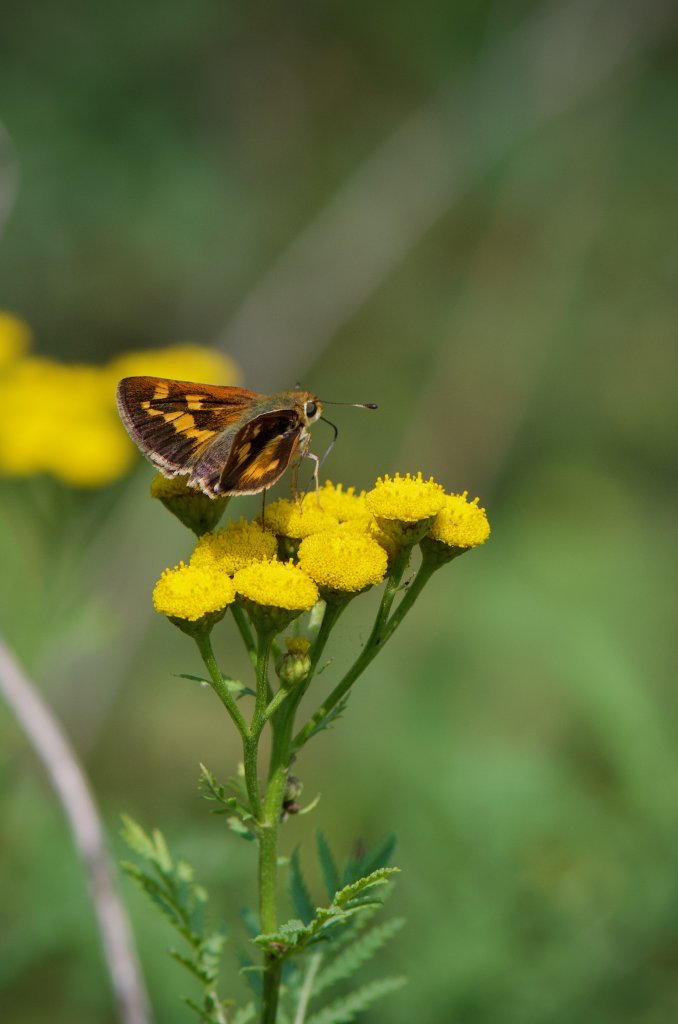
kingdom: Animalia
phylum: Arthropoda
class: Insecta
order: Lepidoptera
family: Hesperiidae
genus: Hesperia
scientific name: Hesperia leonardus
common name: Leonard's Skipper
